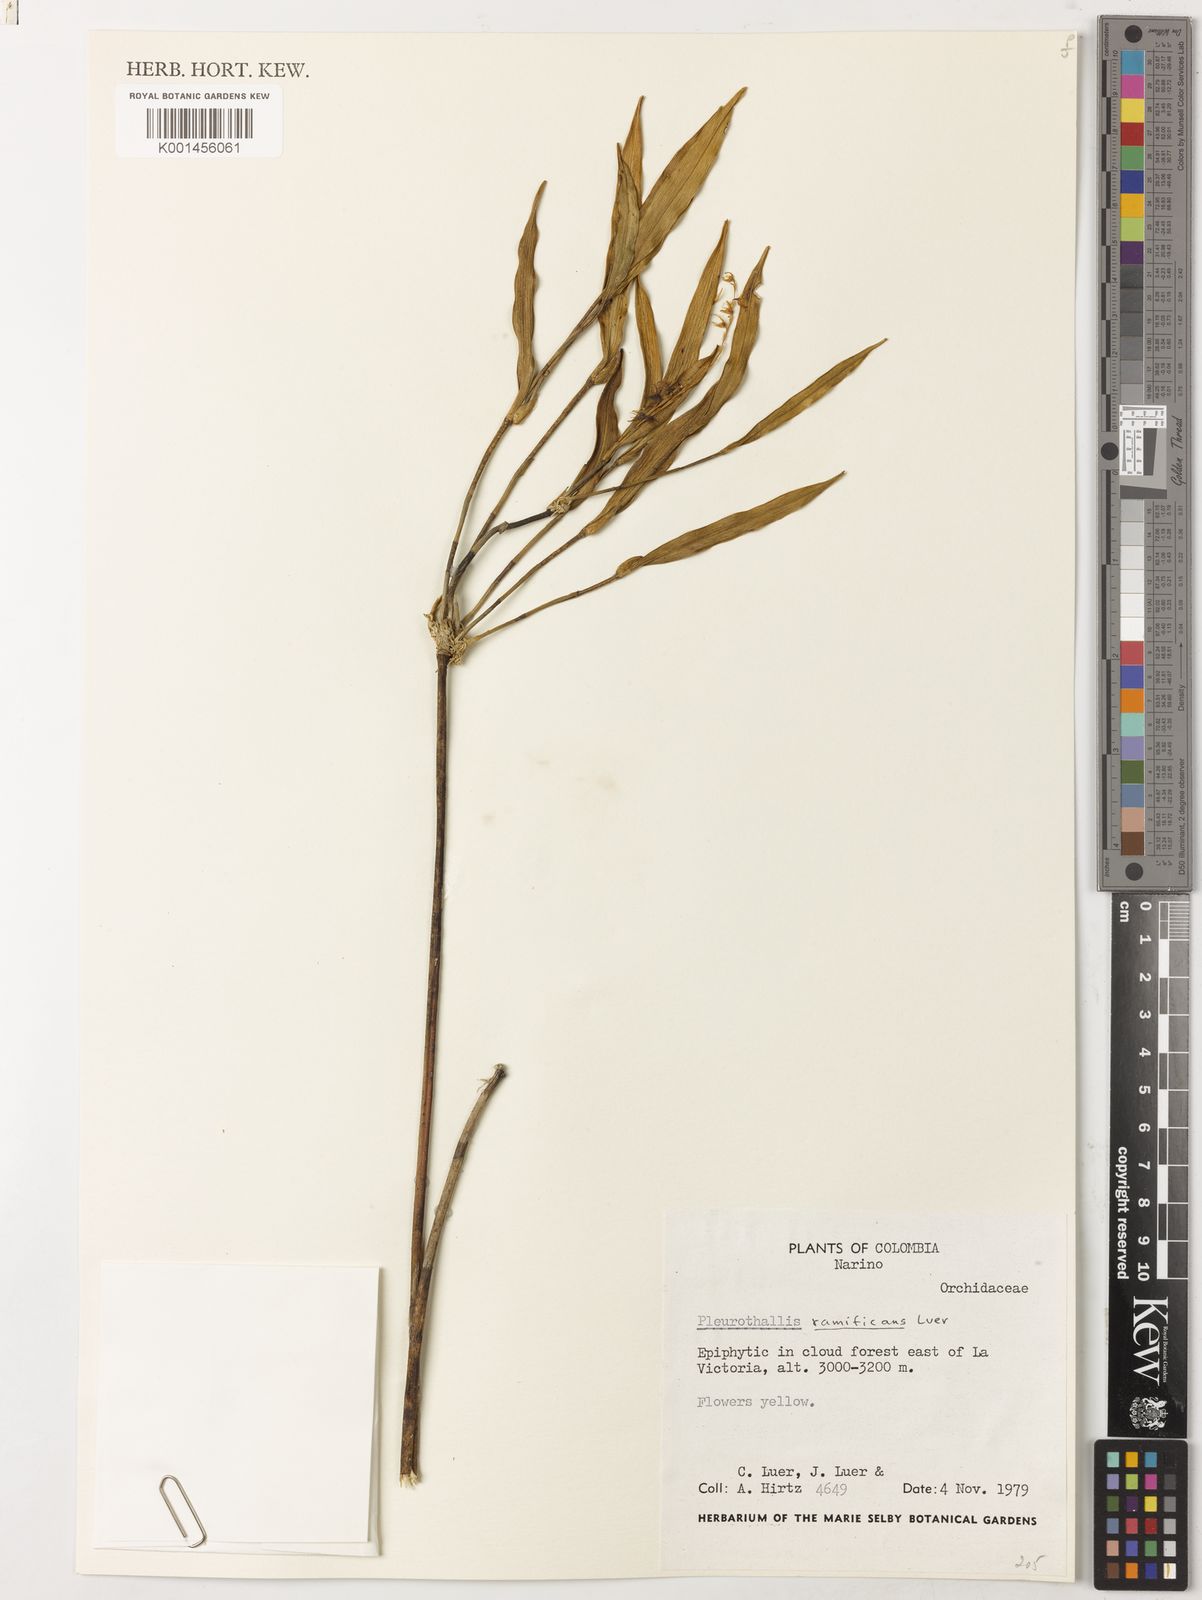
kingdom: Plantae
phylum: Tracheophyta
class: Liliopsida
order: Asparagales
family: Orchidaceae
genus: Pleurothallis
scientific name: Pleurothallis ramificans
